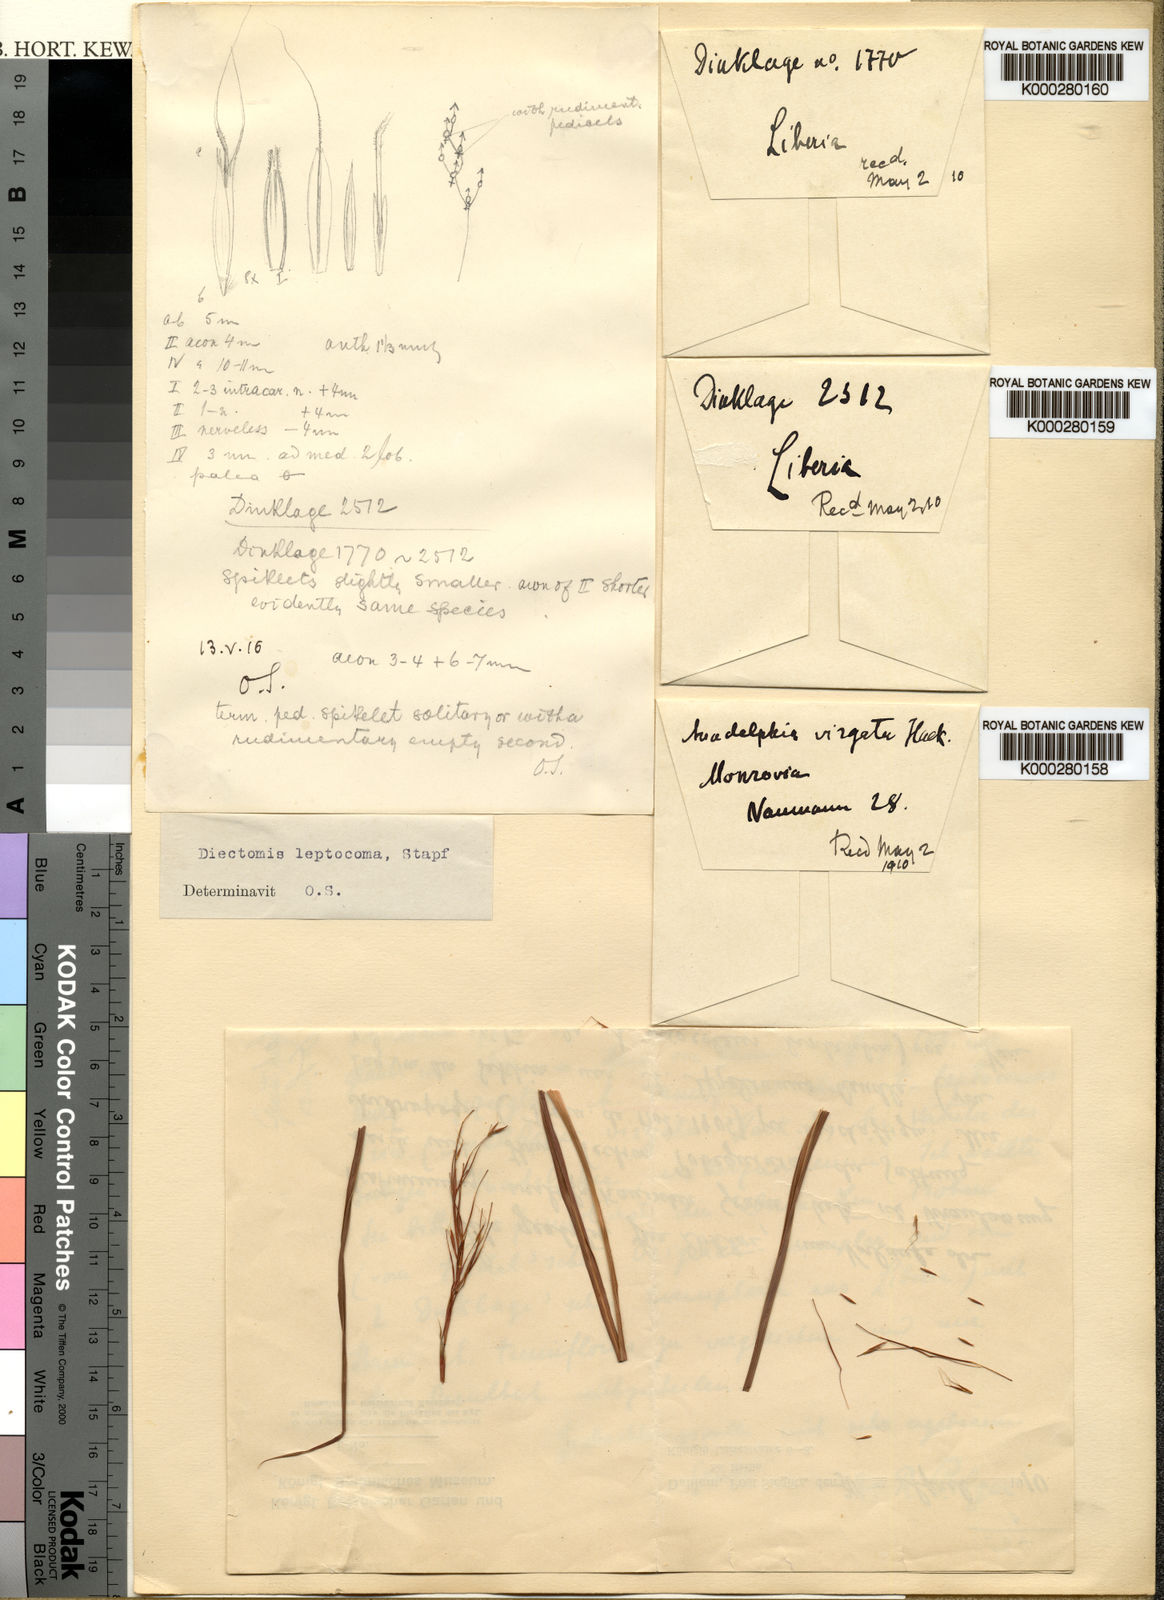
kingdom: Plantae
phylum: Tracheophyta
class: Liliopsida
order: Poales
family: Poaceae
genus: Anadelphia
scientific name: Anadelphia leptocoma
